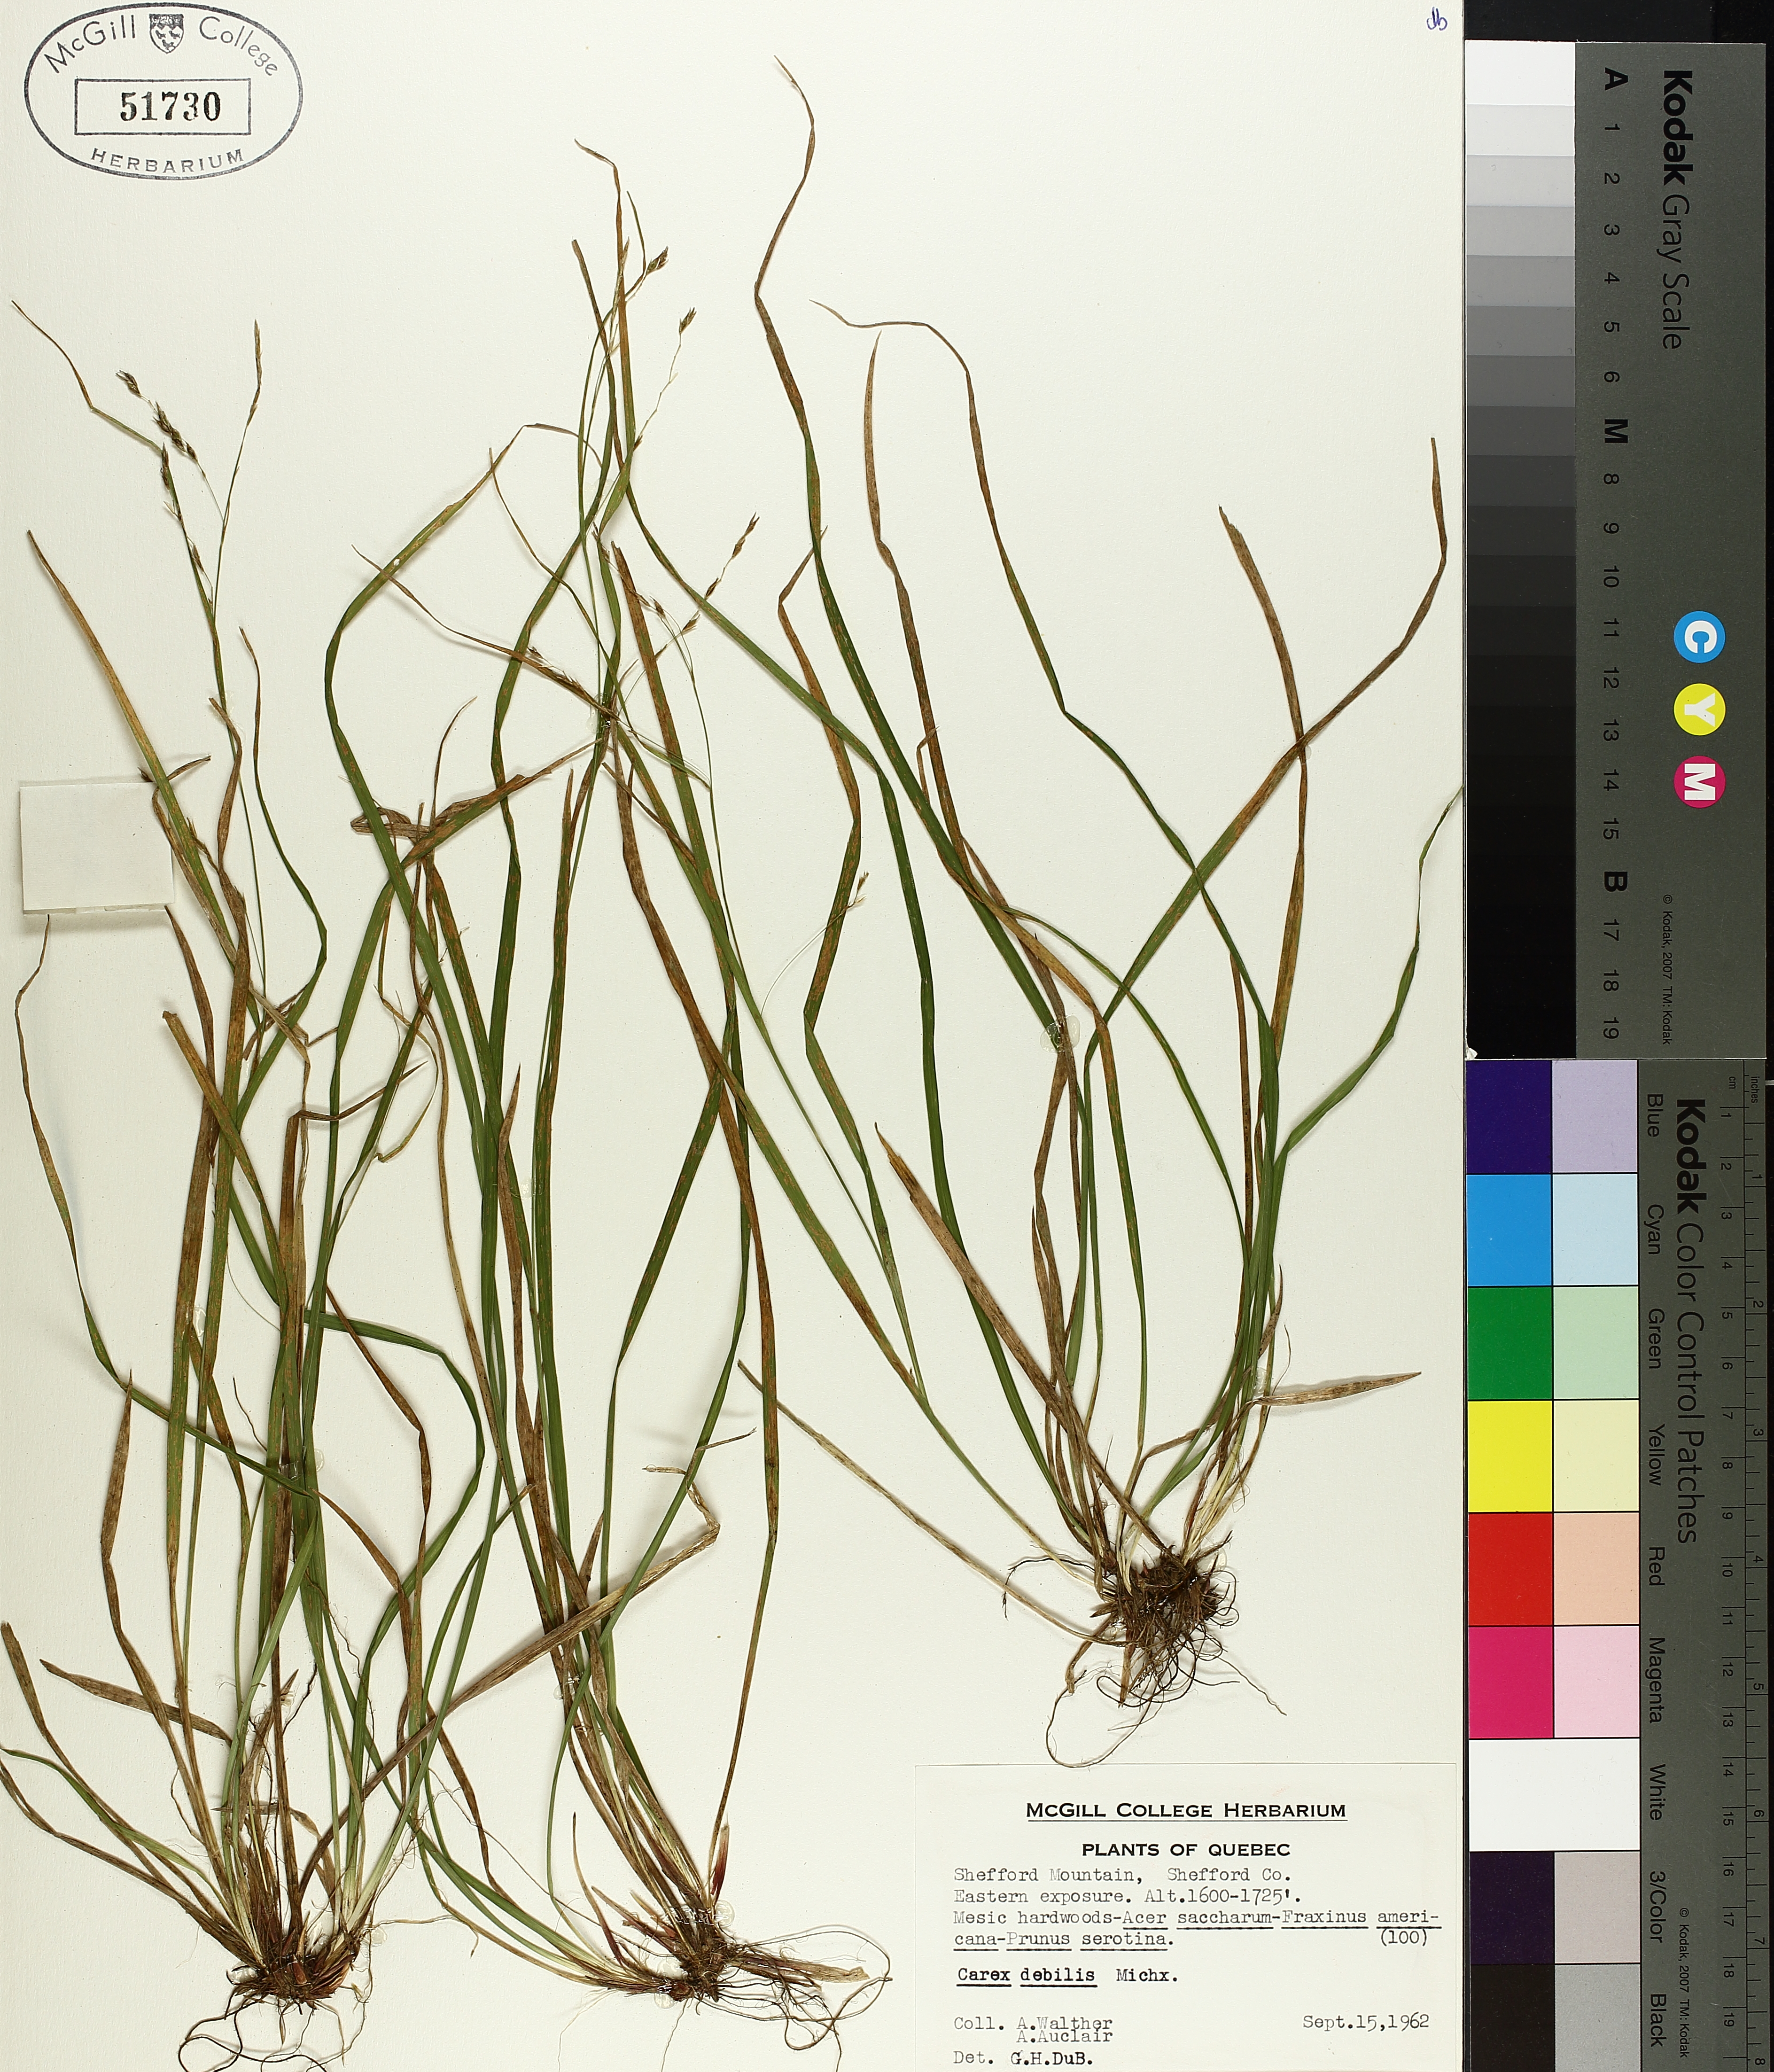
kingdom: Plantae
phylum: Tracheophyta
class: Liliopsida
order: Poales
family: Cyperaceae
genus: Carex
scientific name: Carex debilis
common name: White-edge sedge
